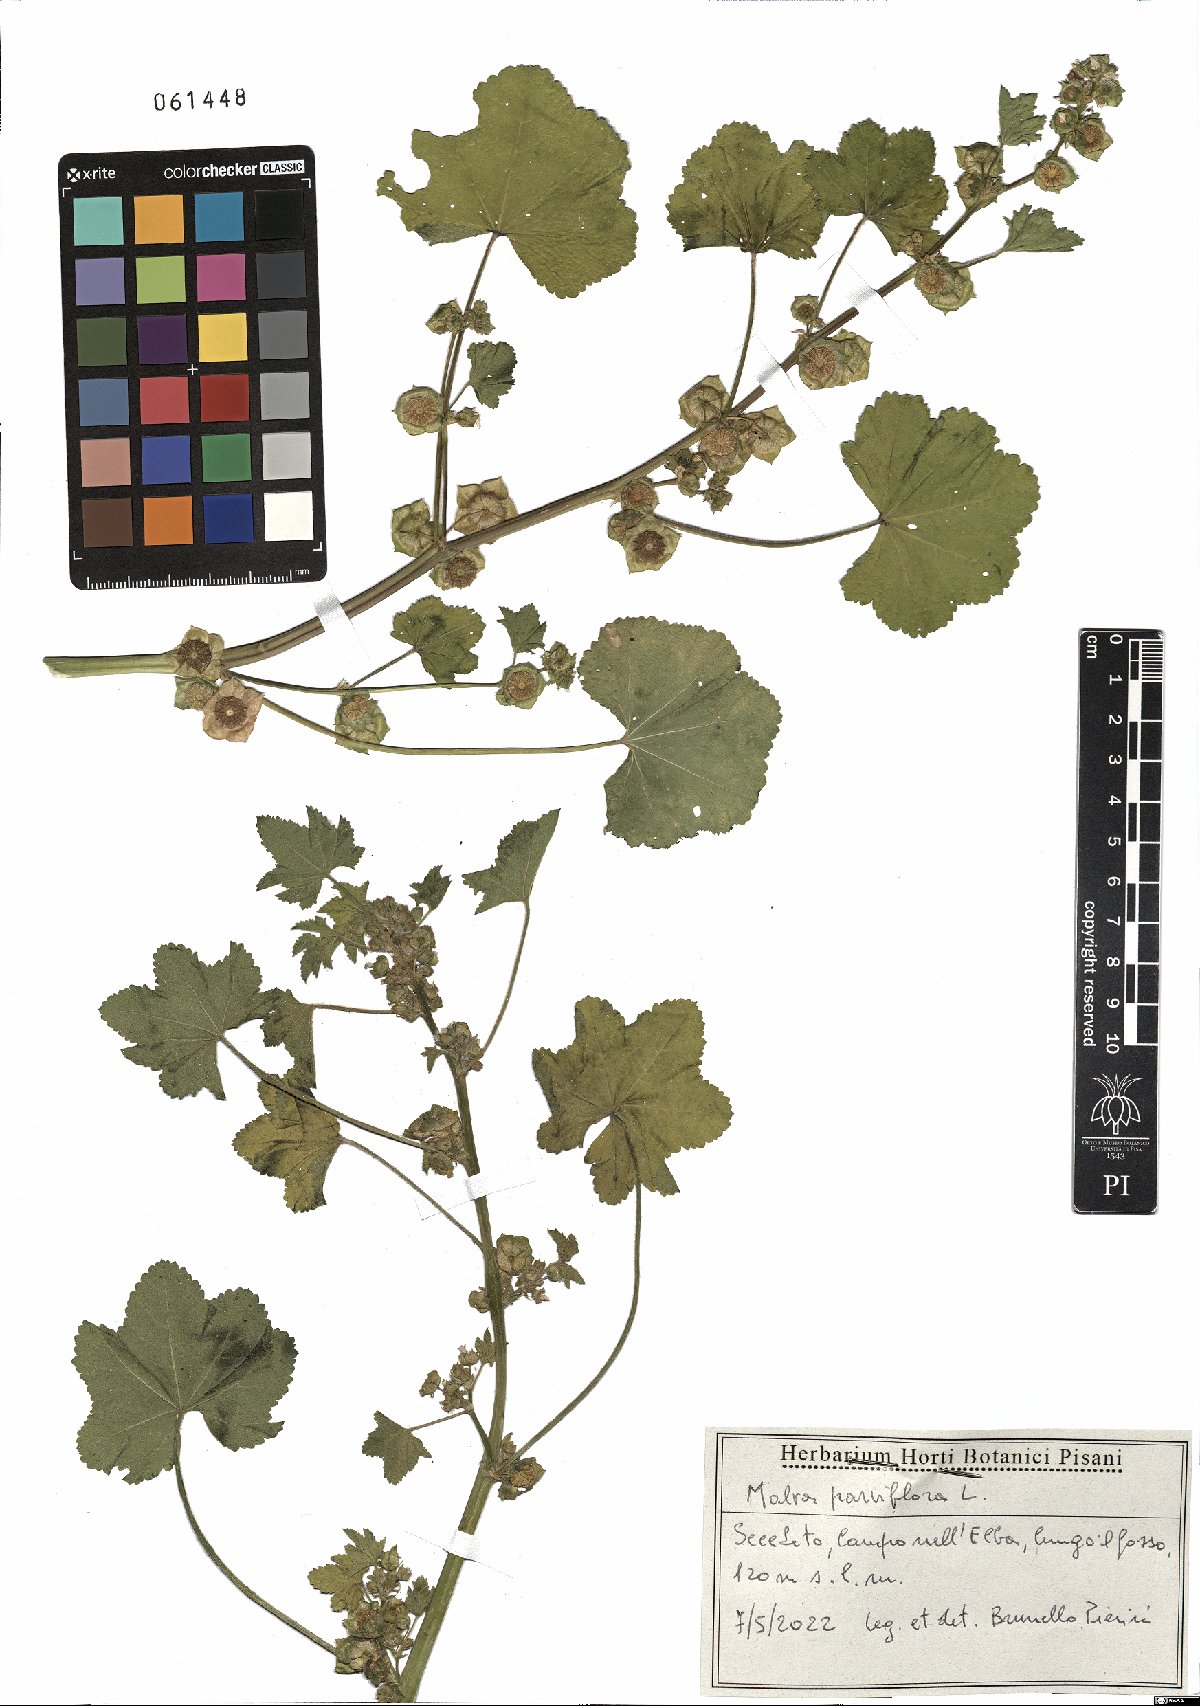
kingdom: Plantae
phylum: Tracheophyta
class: Magnoliopsida
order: Malvales
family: Malvaceae
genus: Malva
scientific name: Malva parviflora
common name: Least mallow
